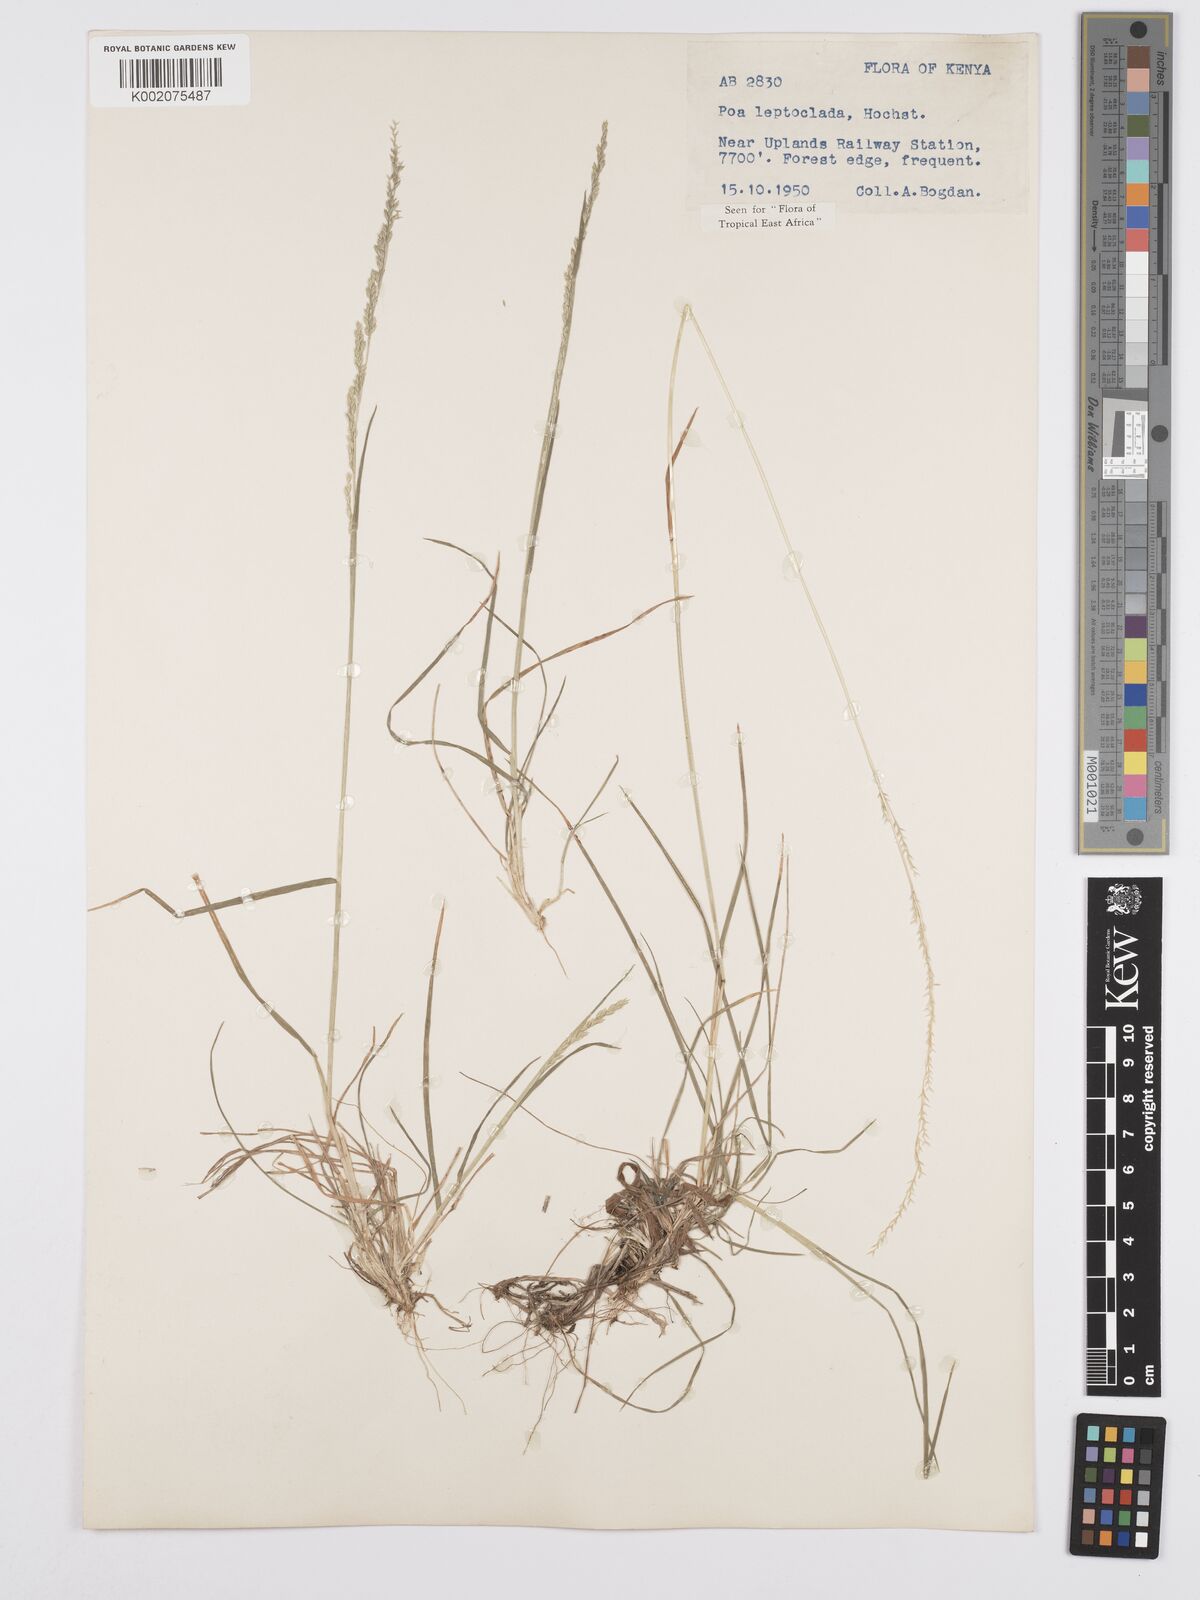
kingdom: Plantae
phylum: Tracheophyta
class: Liliopsida
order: Poales
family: Poaceae
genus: Poa
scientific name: Poa leptoclada
